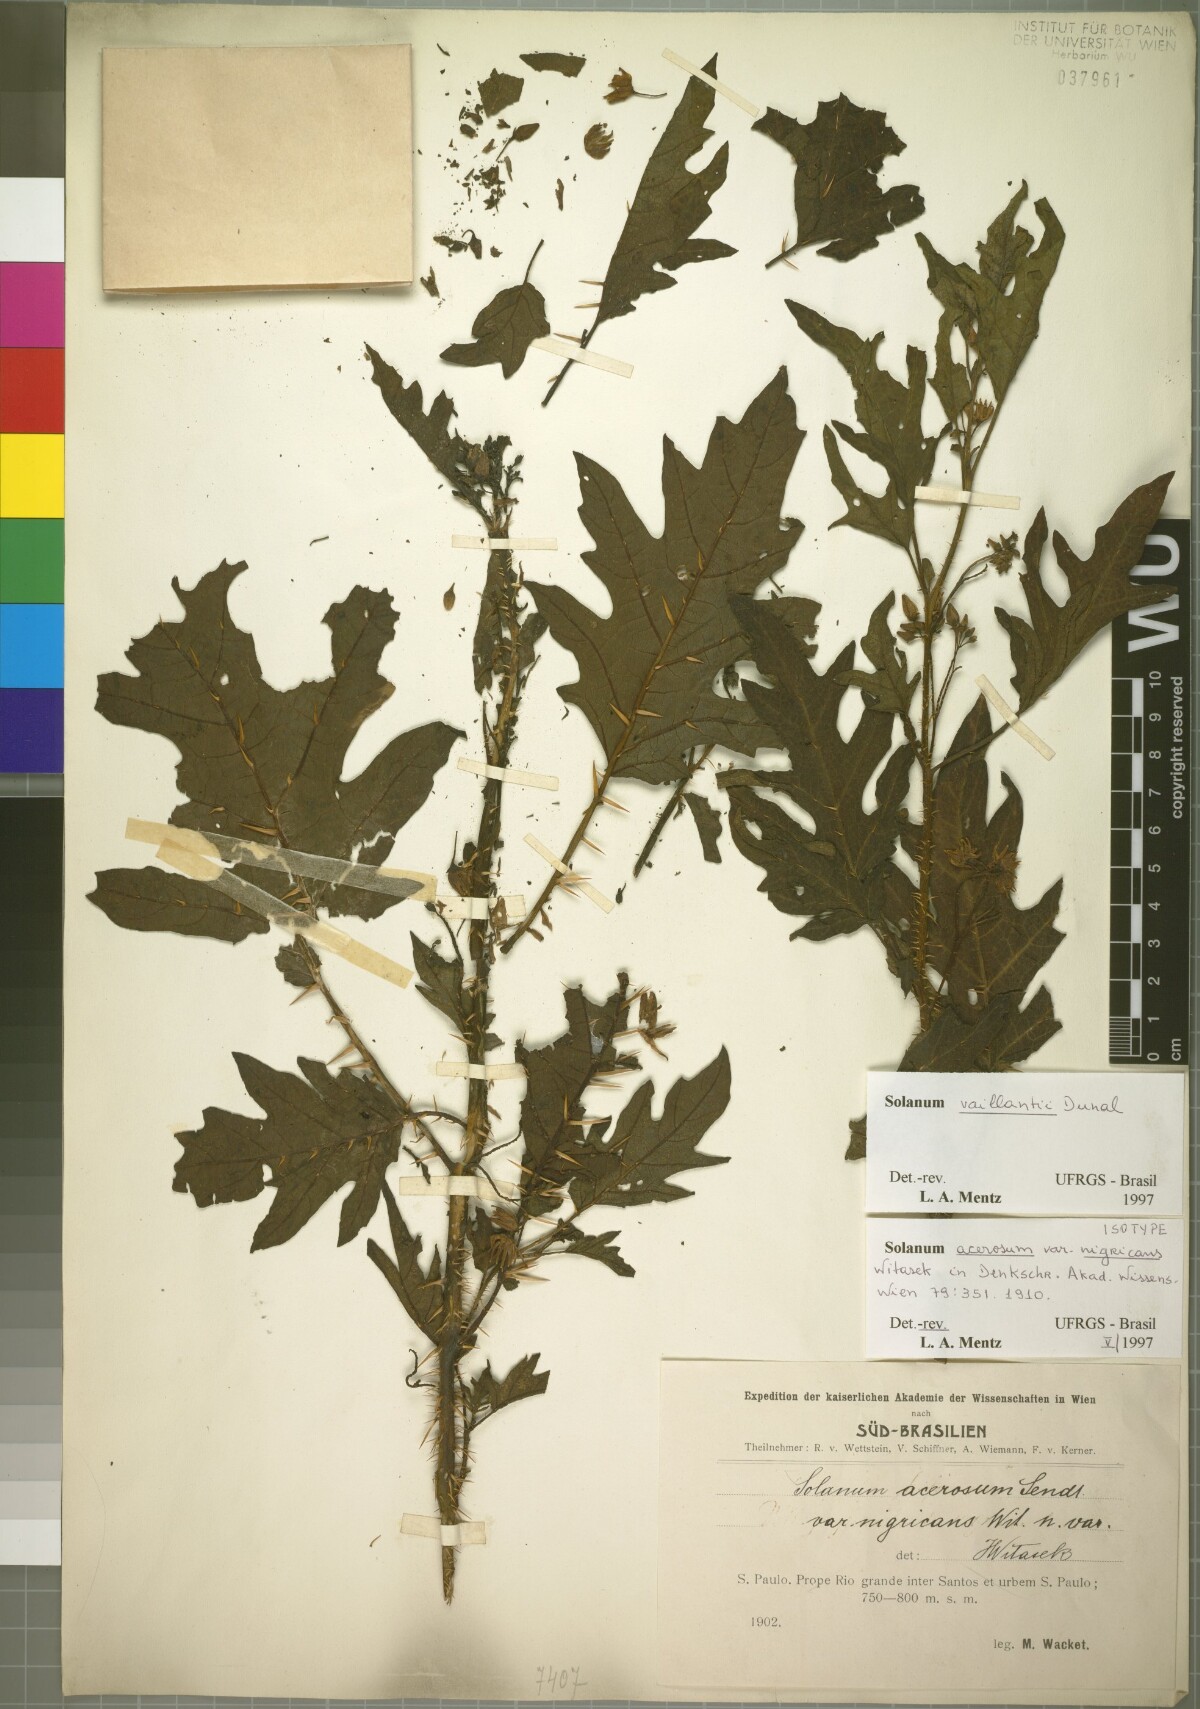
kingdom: Plantae
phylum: Tracheophyta
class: Magnoliopsida
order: Solanales
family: Solanaceae
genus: Solanum
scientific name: Solanum vaillantii
